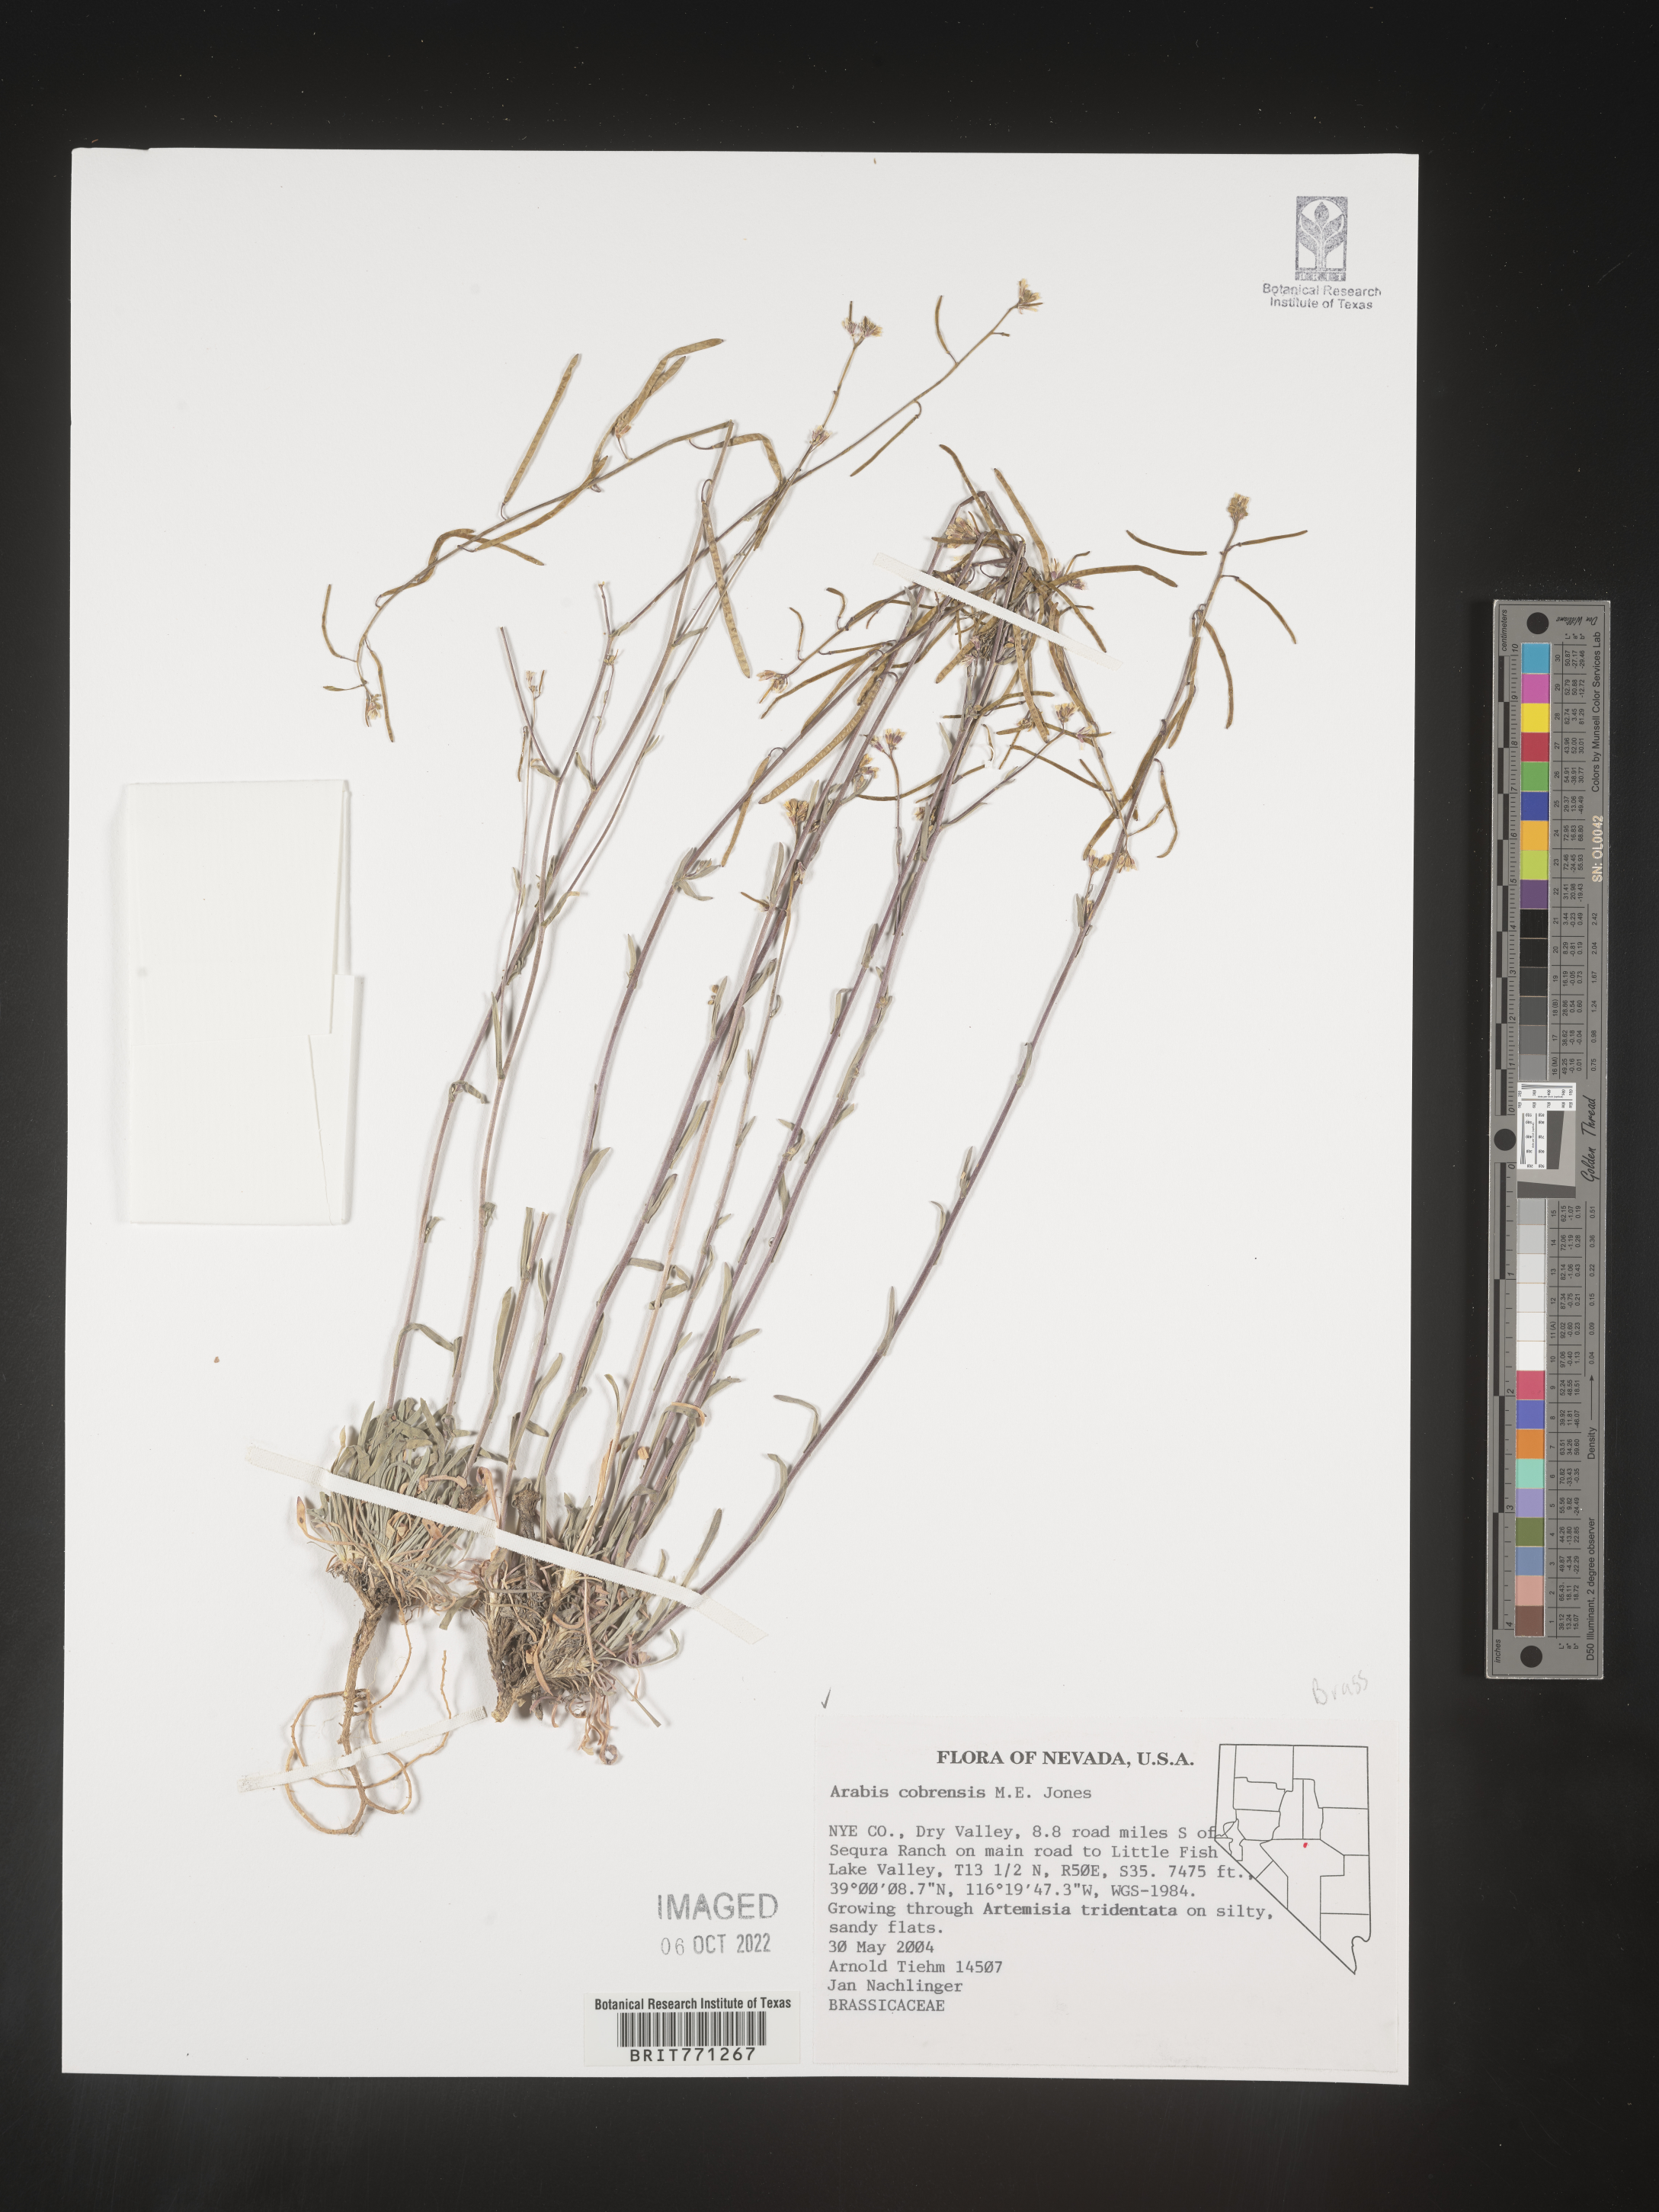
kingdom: Plantae
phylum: Tracheophyta
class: Magnoliopsida
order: Brassicales
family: Brassicaceae
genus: Arabis
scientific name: Arabis
